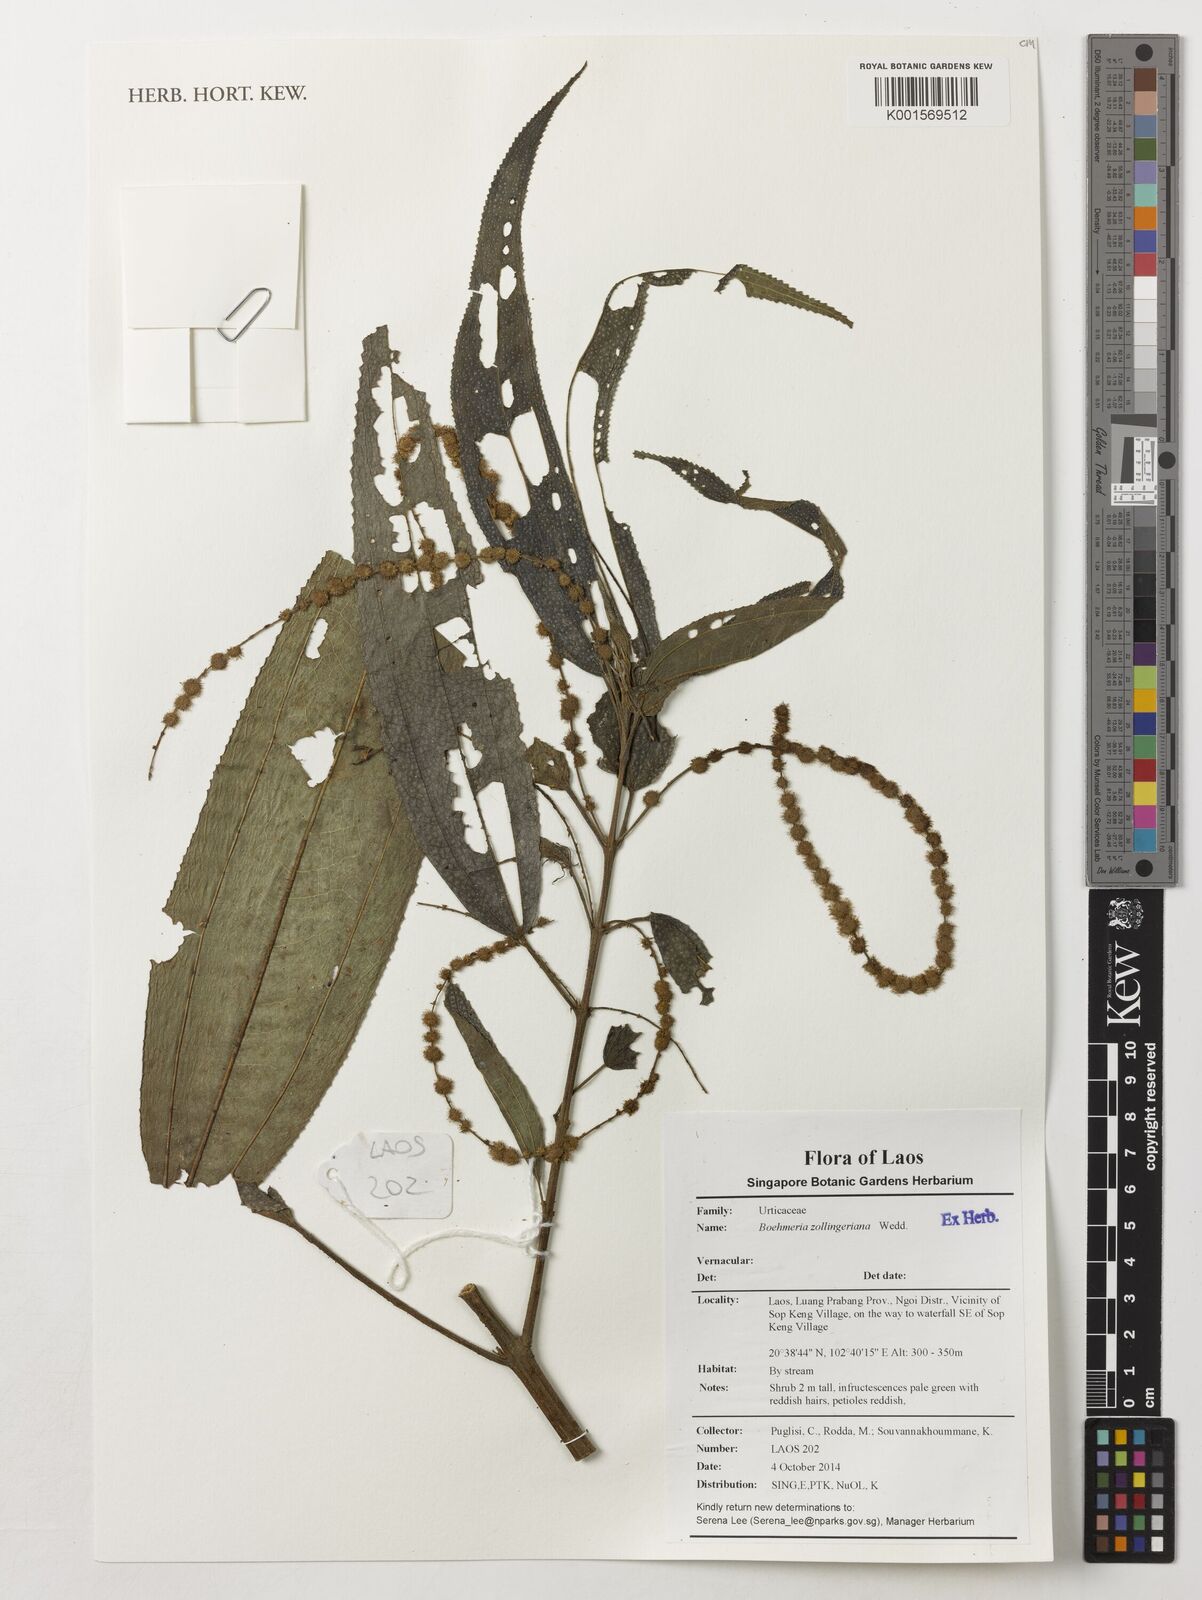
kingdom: Plantae
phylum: Tracheophyta
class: Magnoliopsida
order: Rosales
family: Urticaceae
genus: Boehmeria
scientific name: Boehmeria zollingeriana
